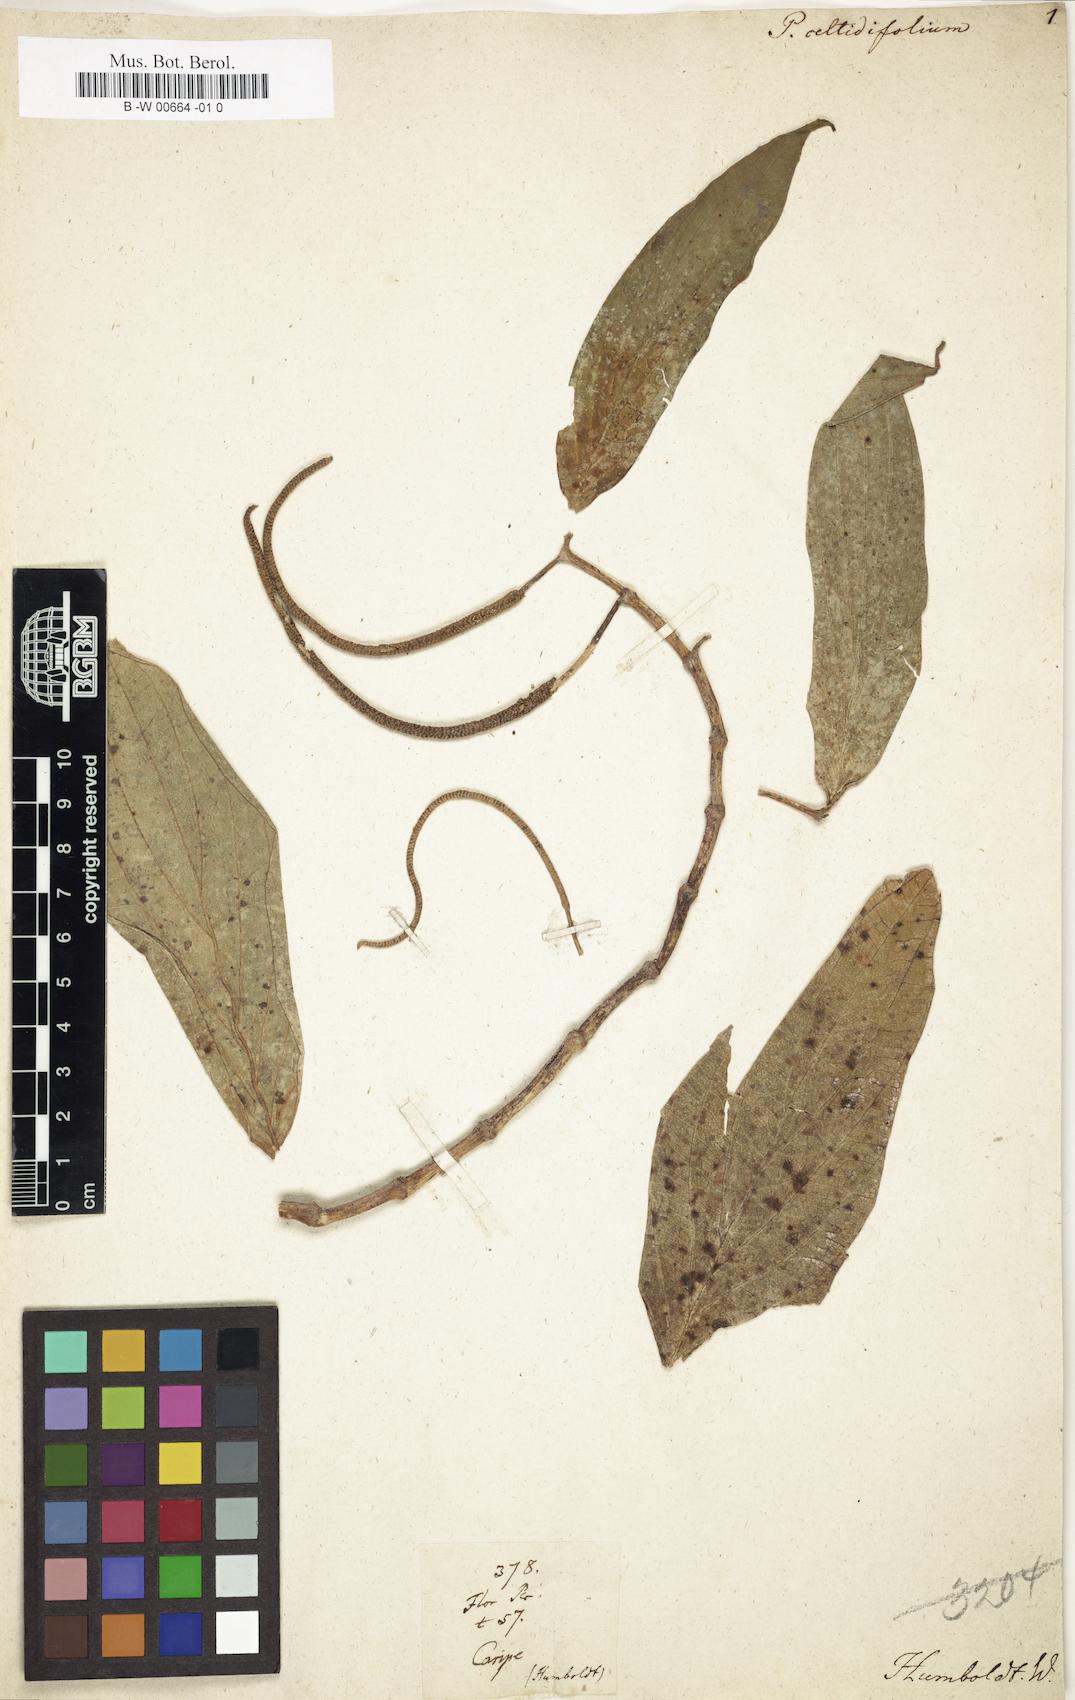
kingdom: Plantae
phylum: Tracheophyta
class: Magnoliopsida
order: Piperales
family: Piperaceae
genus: Piper
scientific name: Piper aduncum
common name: Spiked pepper
